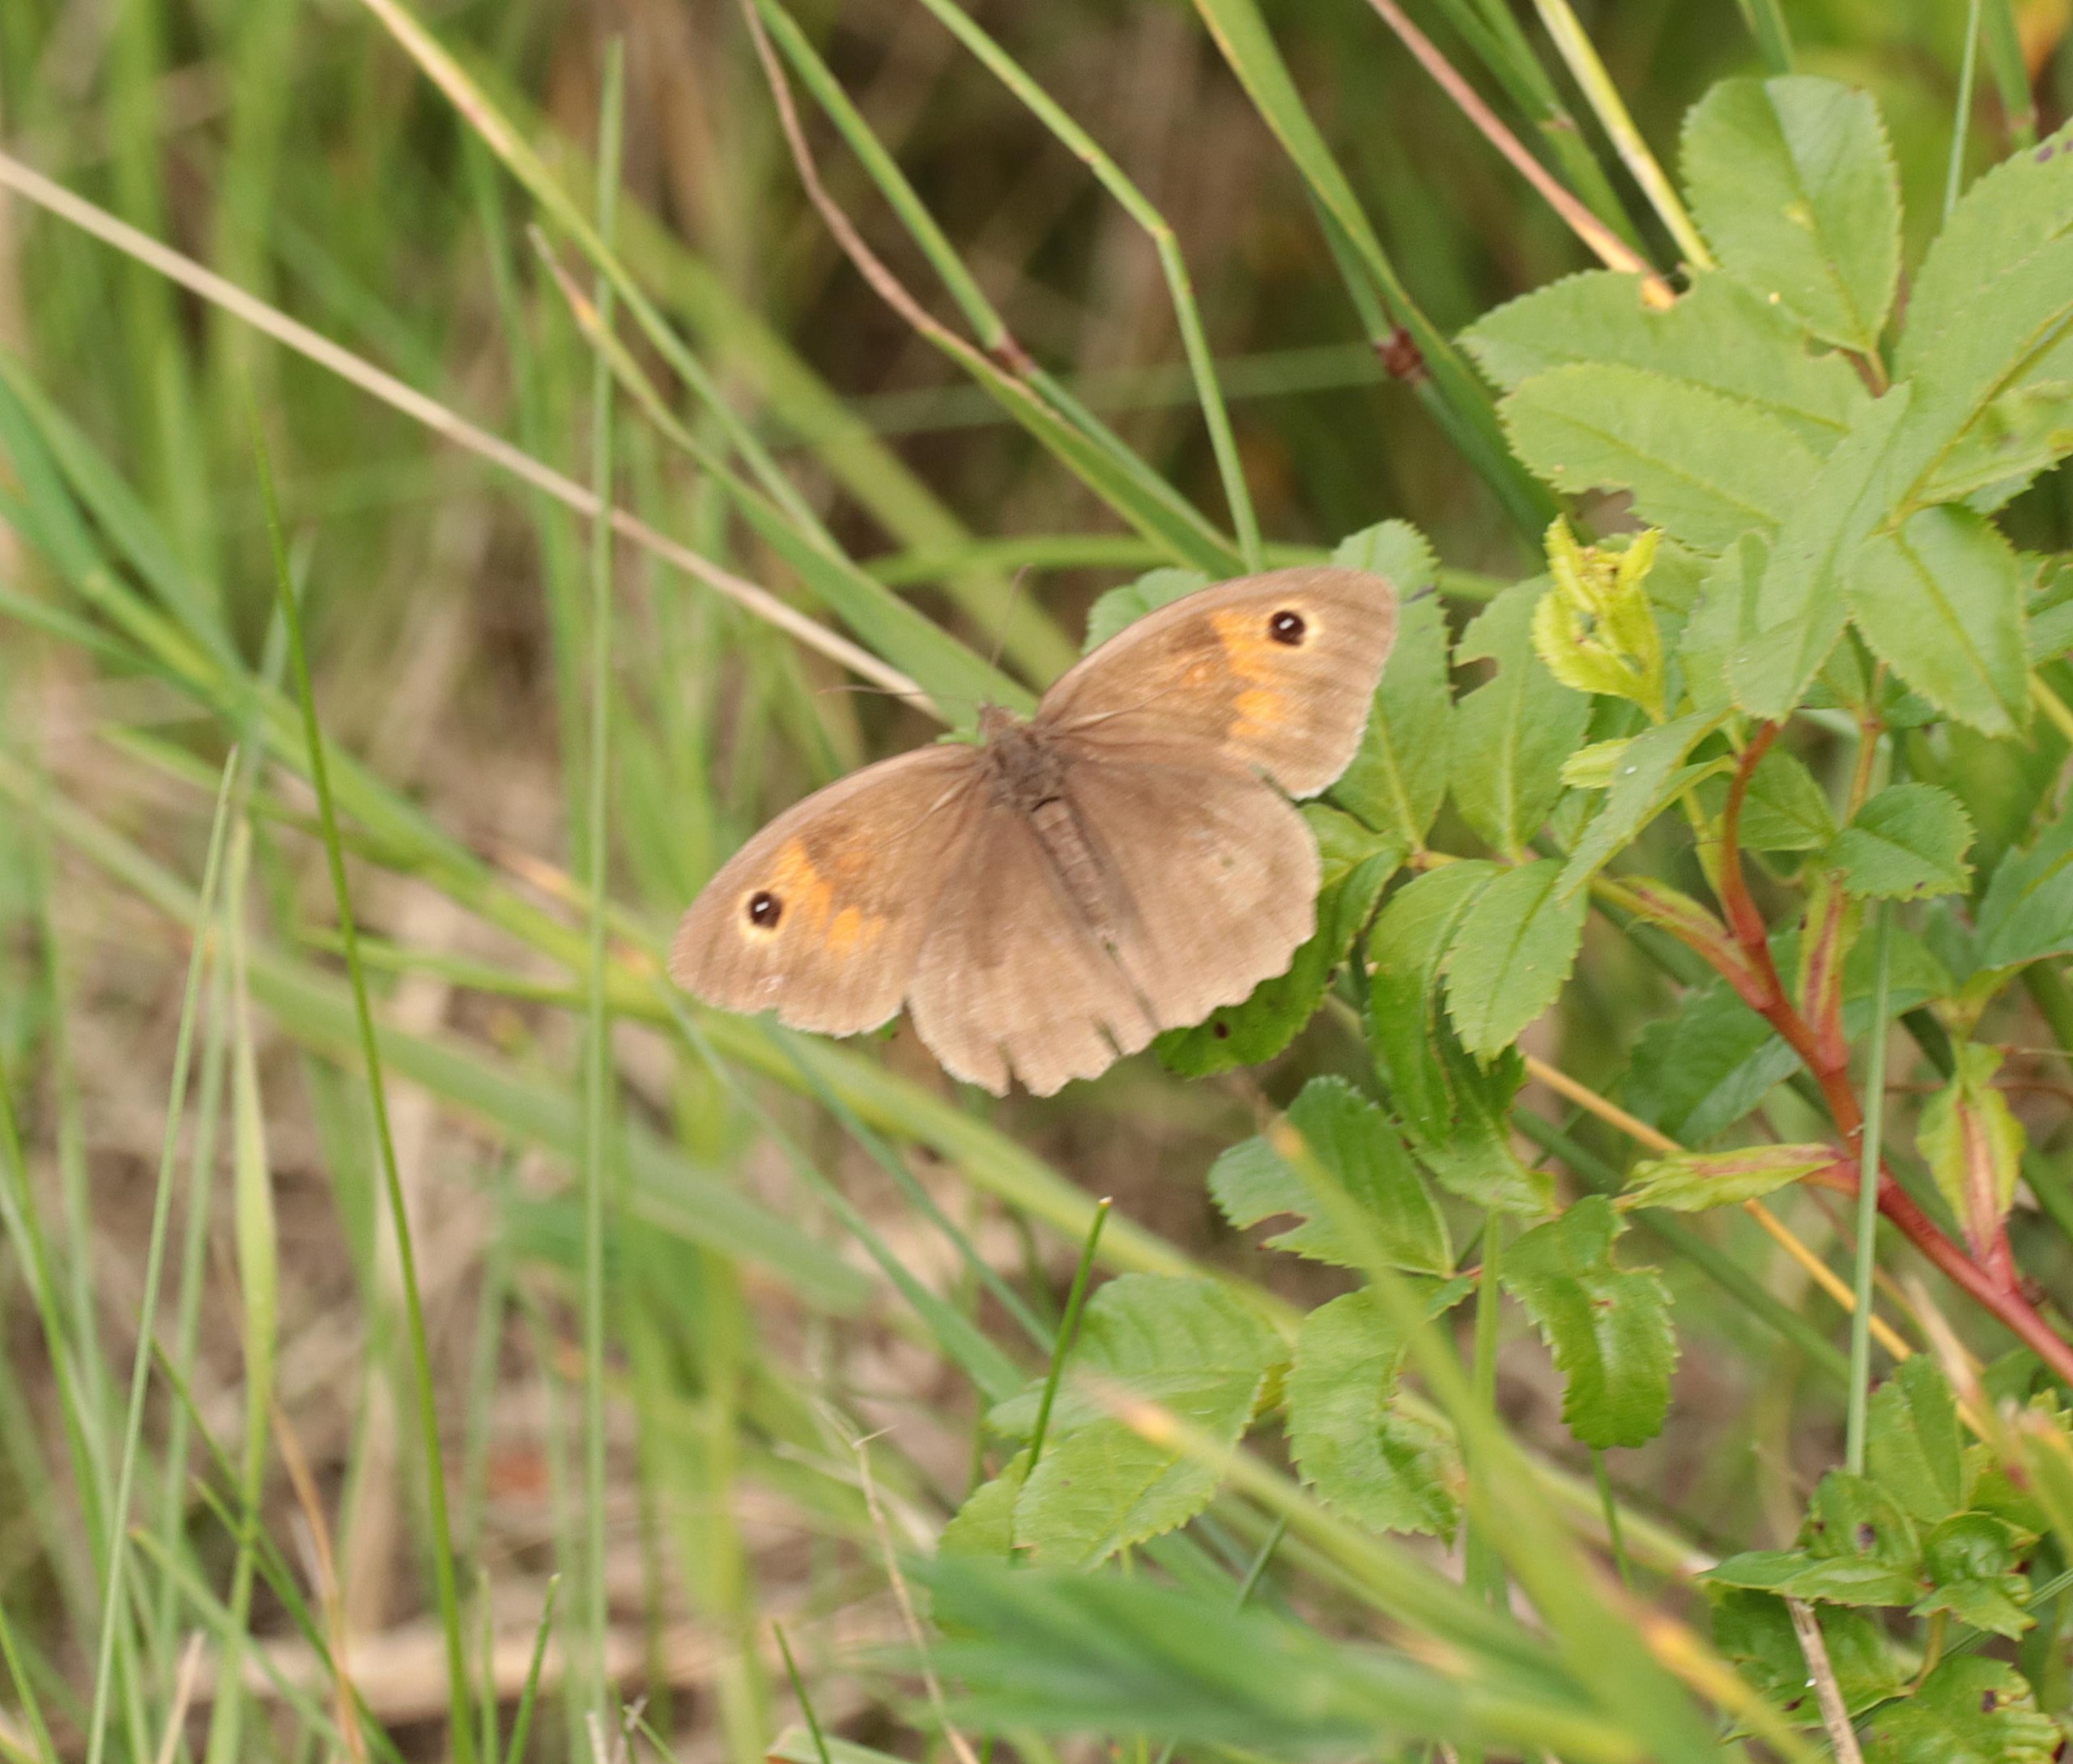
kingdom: Animalia
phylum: Arthropoda
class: Insecta
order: Lepidoptera
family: Nymphalidae
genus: Maniola
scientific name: Maniola jurtina
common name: Græsrandøje
